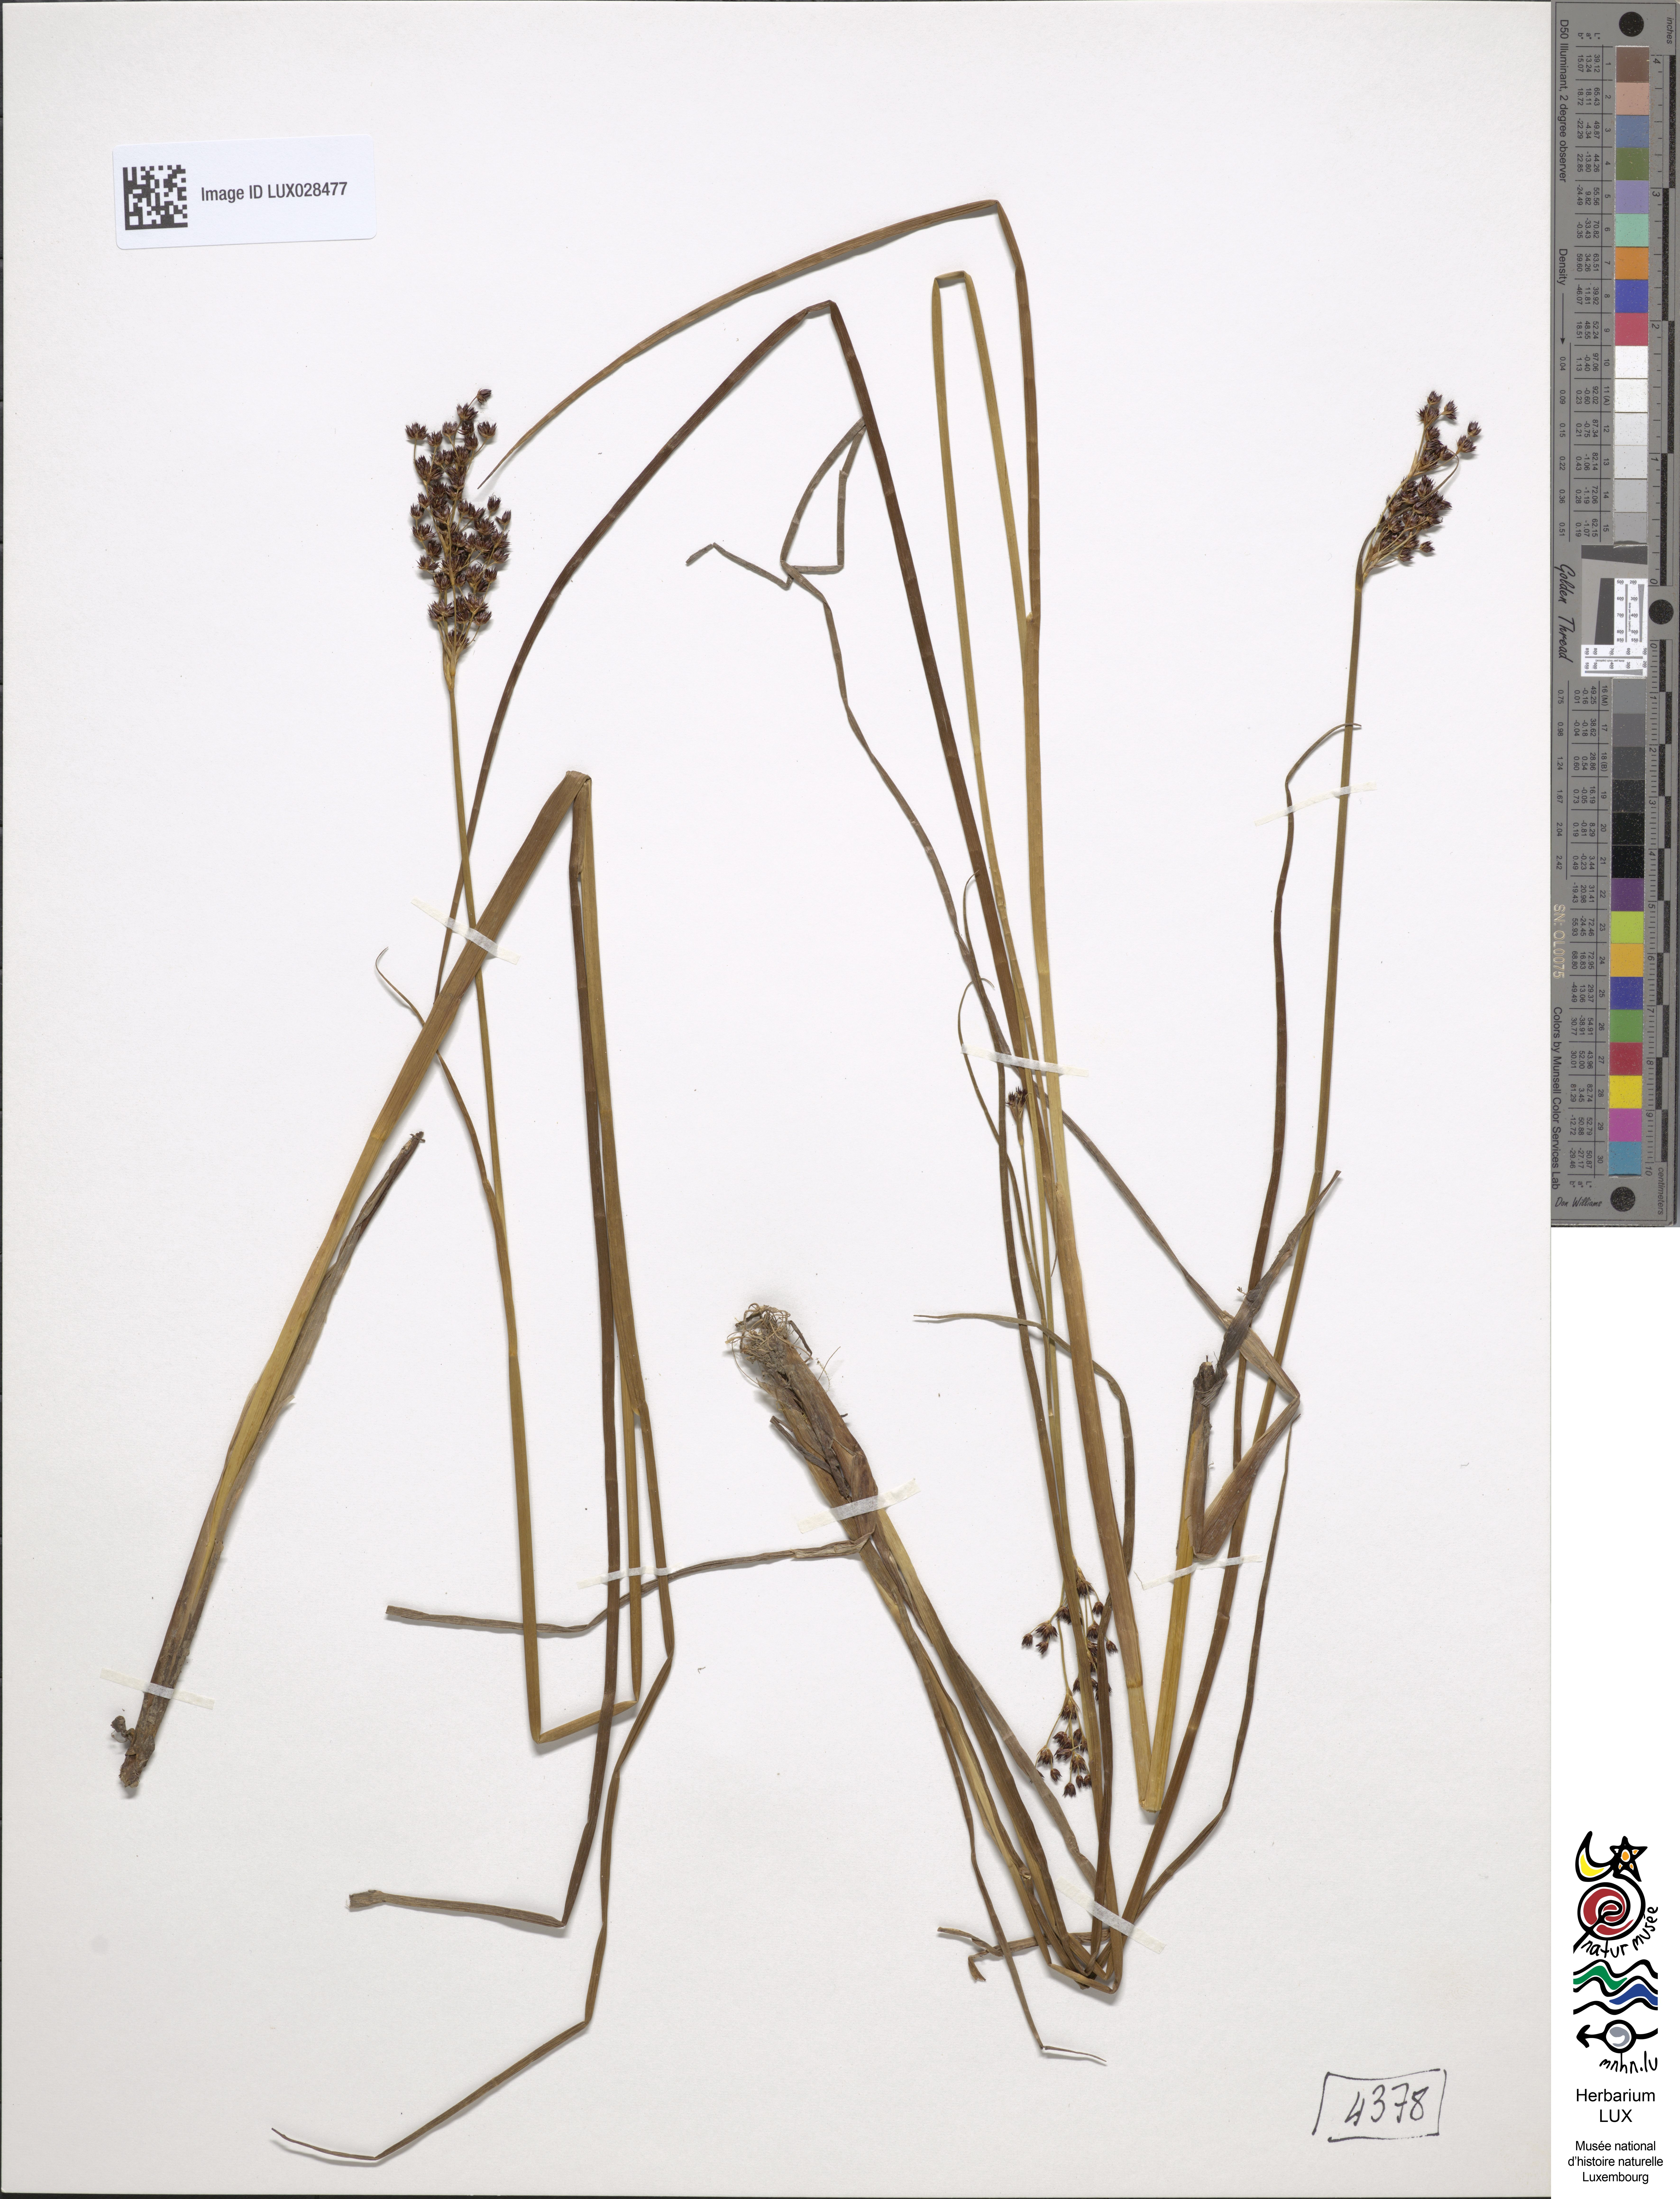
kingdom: Plantae
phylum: Tracheophyta
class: Liliopsida
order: Poales
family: Juncaceae
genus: Juncus
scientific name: Juncus atratus
